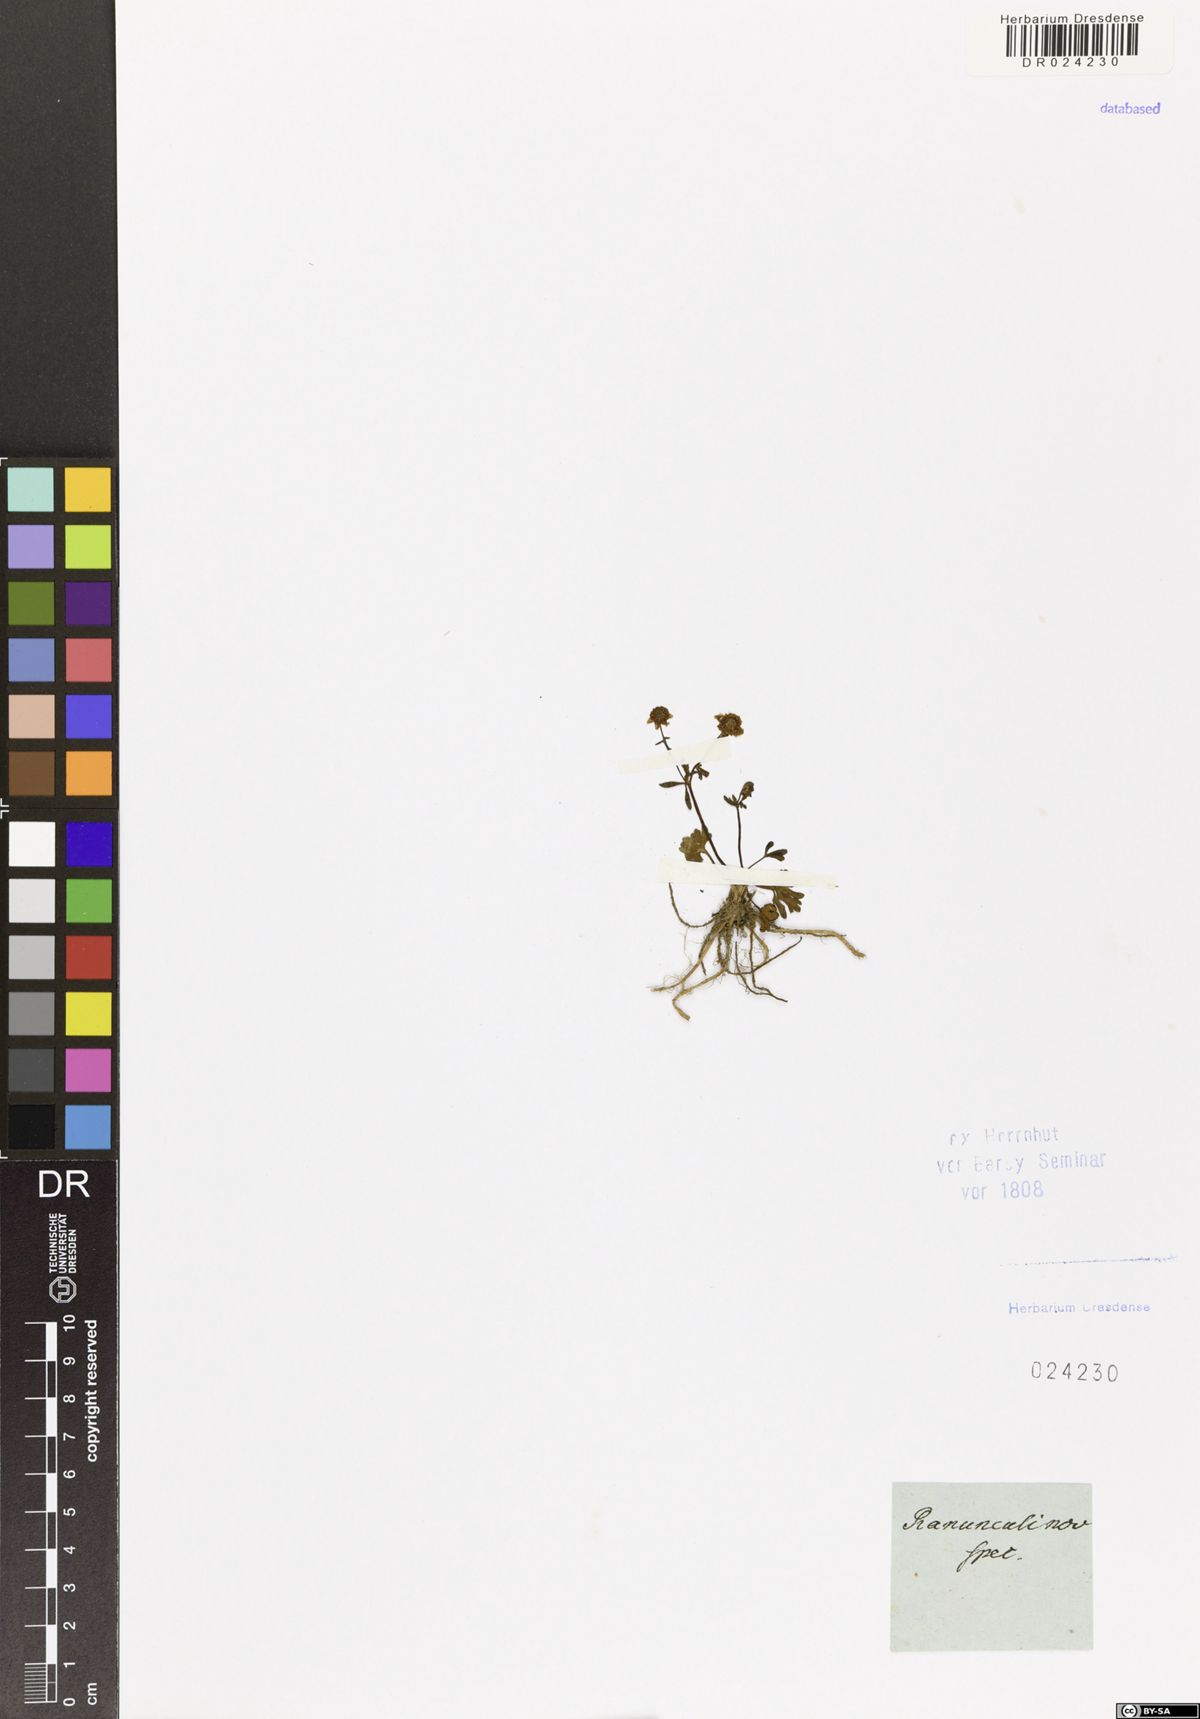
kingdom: Plantae
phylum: Tracheophyta
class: Magnoliopsida
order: Ranunculales
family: Ranunculaceae
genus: Ranunculus
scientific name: Ranunculus
